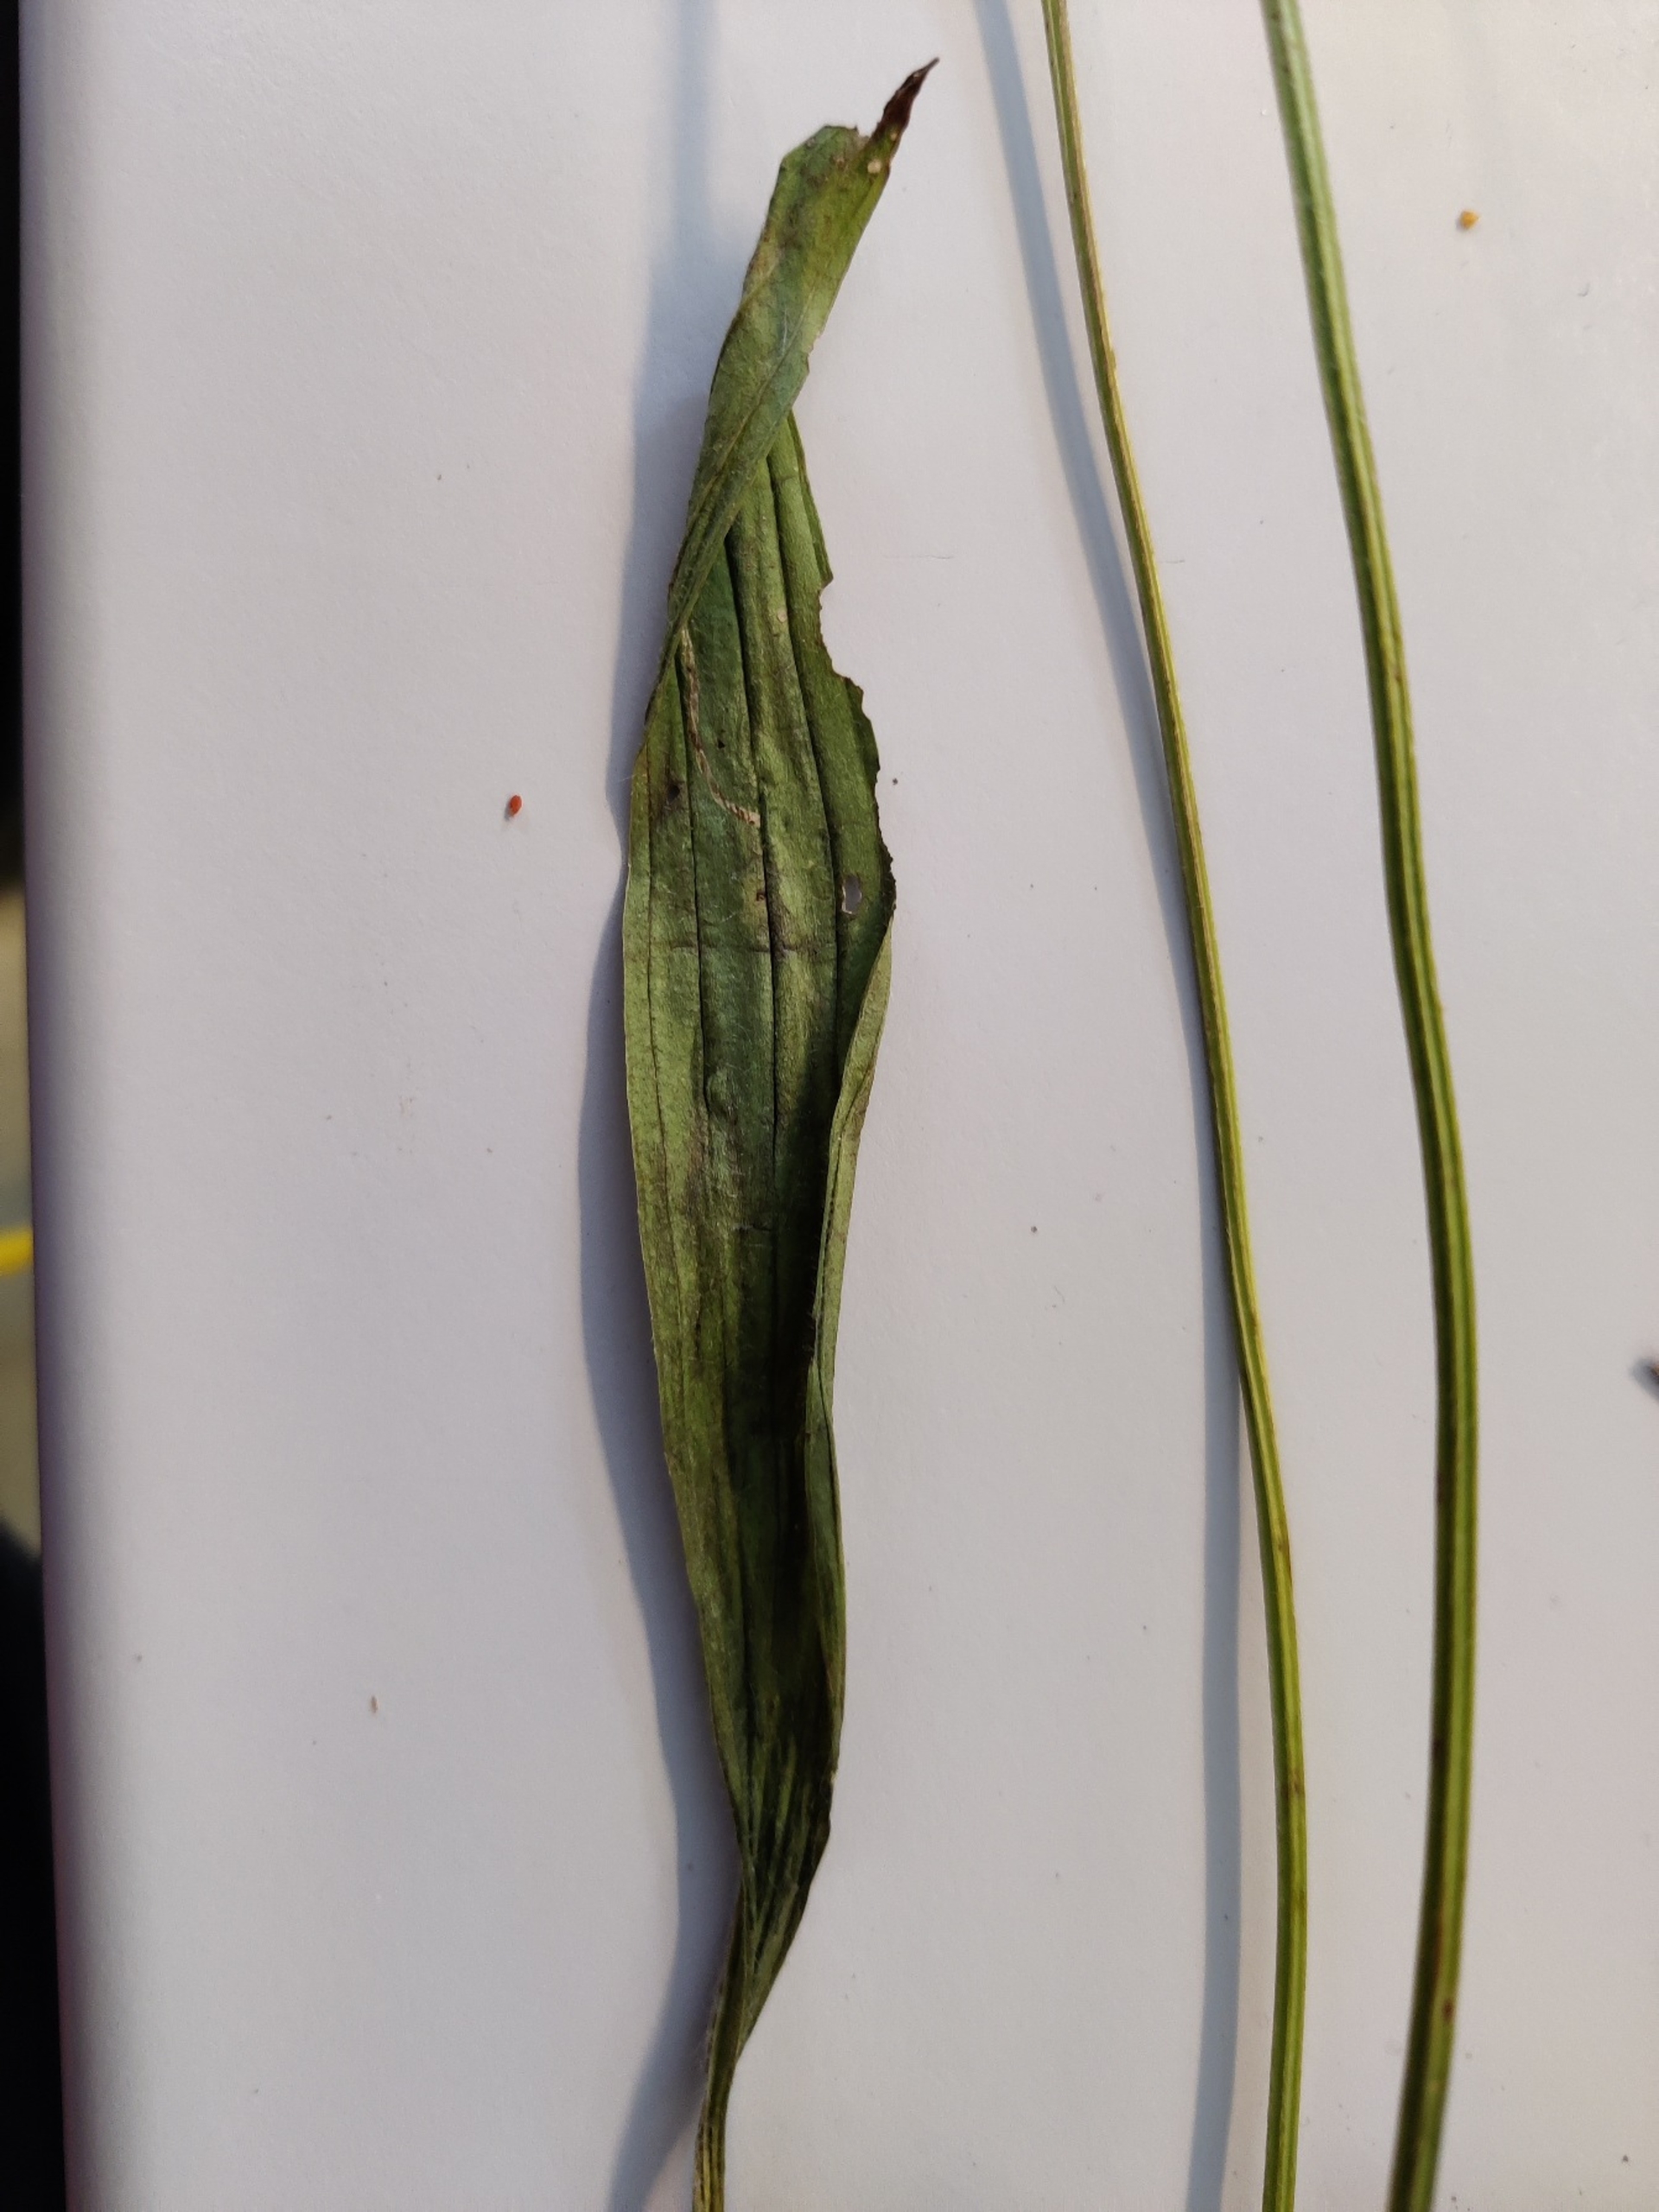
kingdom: Plantae
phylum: Tracheophyta
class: Magnoliopsida
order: Lamiales
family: Plantaginaceae
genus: Plantago
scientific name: Plantago lanceolata
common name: Lancet-vejbred
